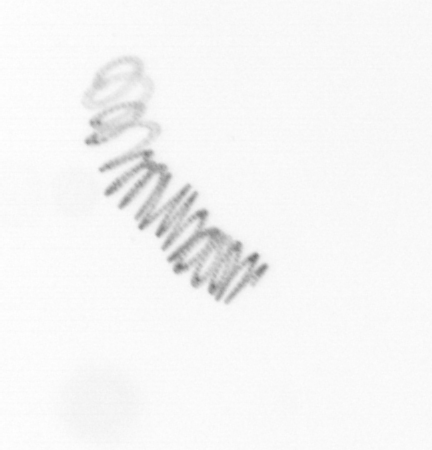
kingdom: Chromista
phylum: Ochrophyta
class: Bacillariophyceae
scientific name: Bacillariophyceae
